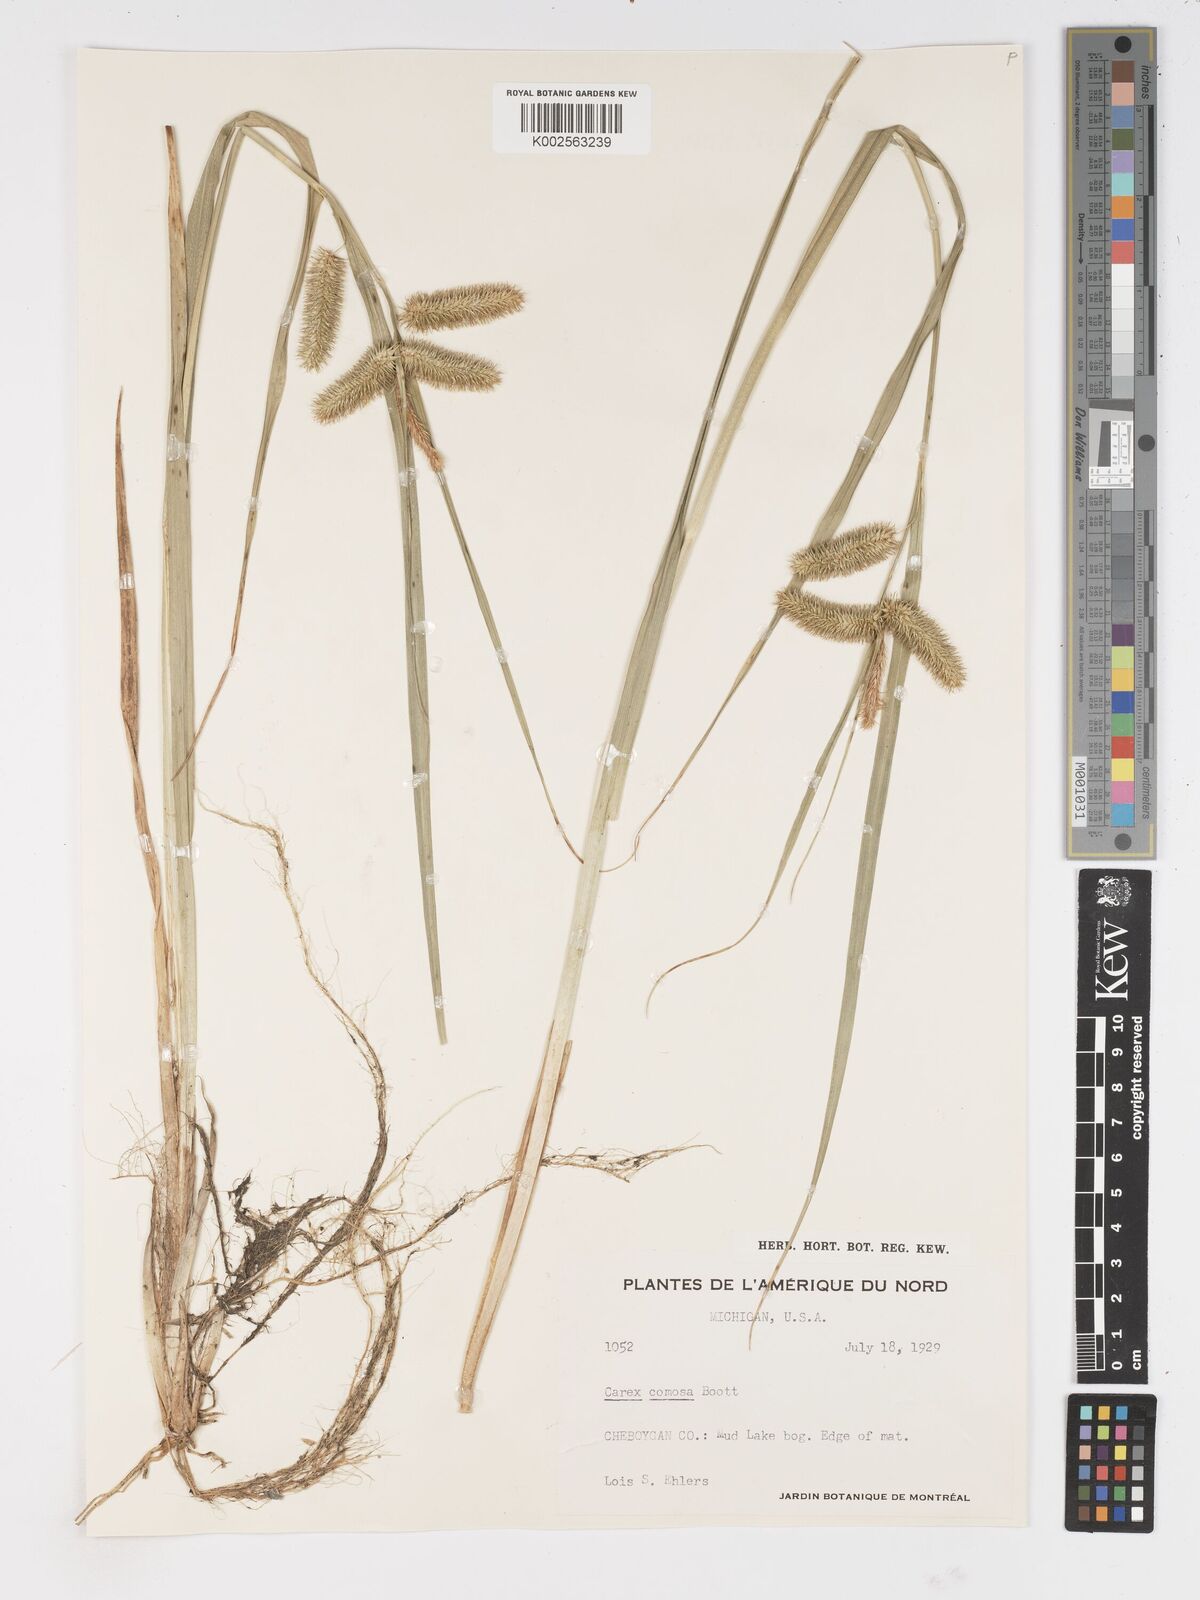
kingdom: Plantae
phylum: Tracheophyta
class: Liliopsida
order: Poales
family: Cyperaceae
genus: Carex
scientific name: Carex comosa
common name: Bristly sedge
